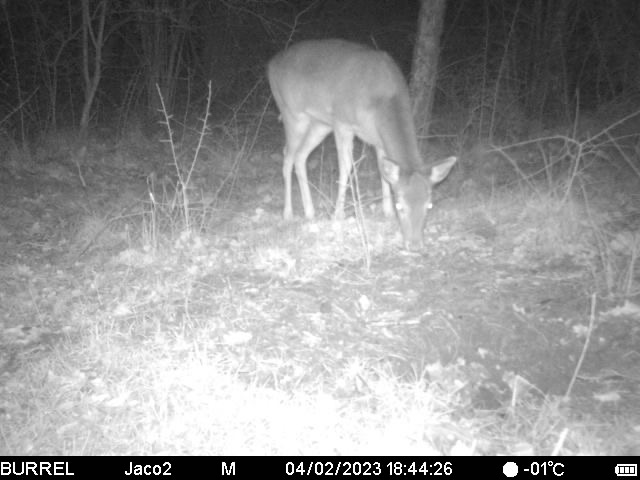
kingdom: Animalia
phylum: Chordata
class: Mammalia
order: Artiodactyla
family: Cervidae
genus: Cervus
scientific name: Cervus elaphus
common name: Krondyr
